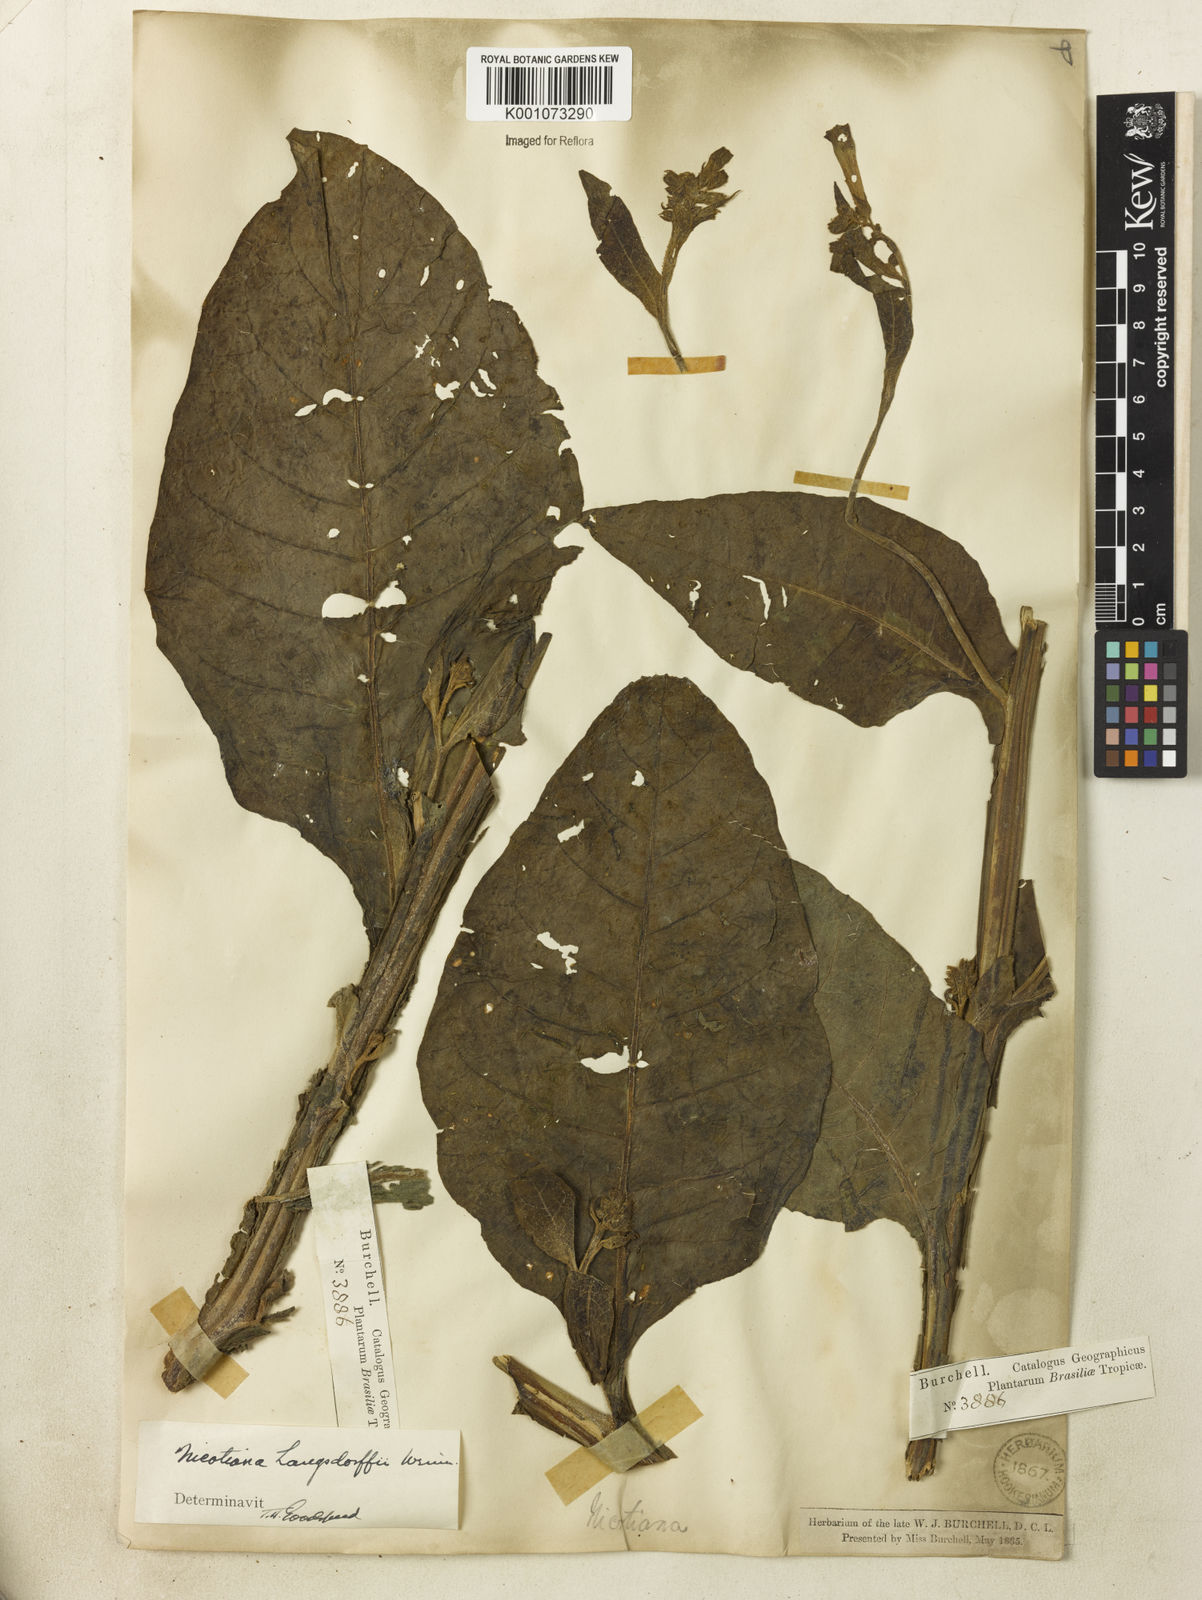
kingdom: Plantae
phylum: Tracheophyta
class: Magnoliopsida
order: Solanales
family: Solanaceae
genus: Nicotiana
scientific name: Nicotiana
